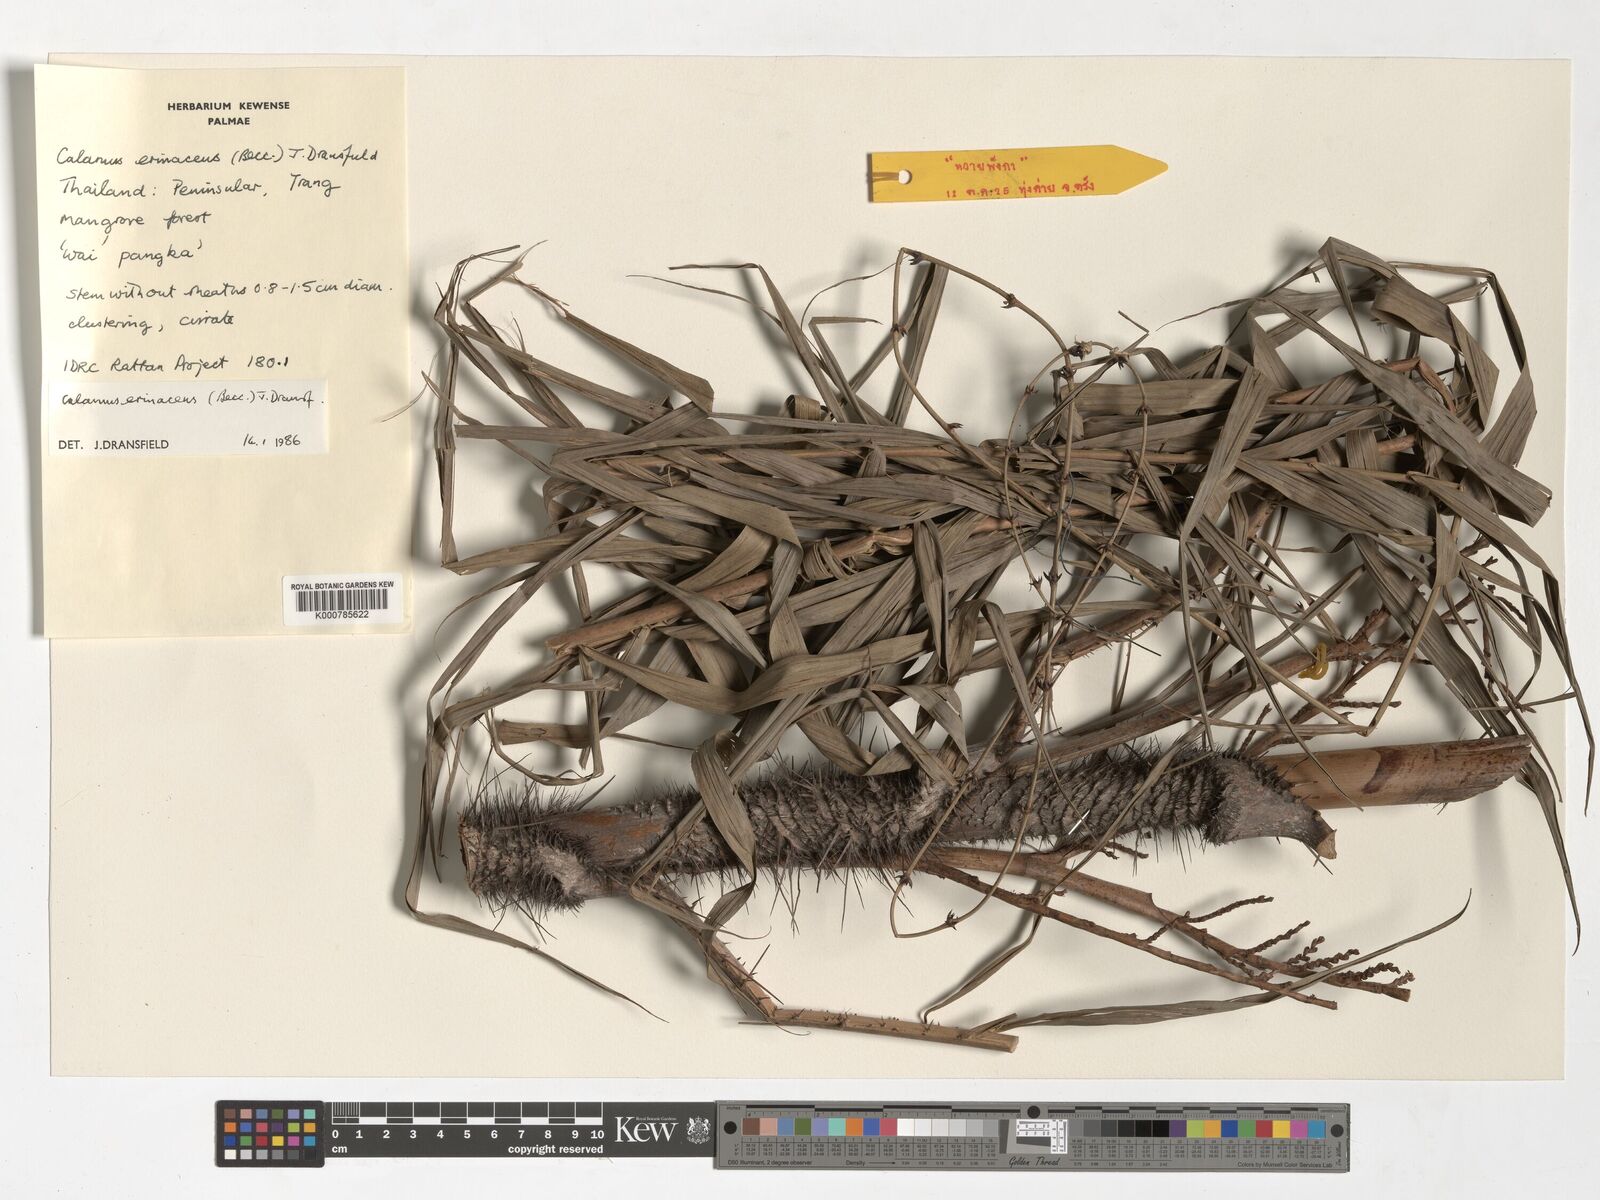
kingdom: Plantae
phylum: Tracheophyta
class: Liliopsida
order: Arecales
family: Arecaceae
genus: Calamus
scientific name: Calamus erinaceus
